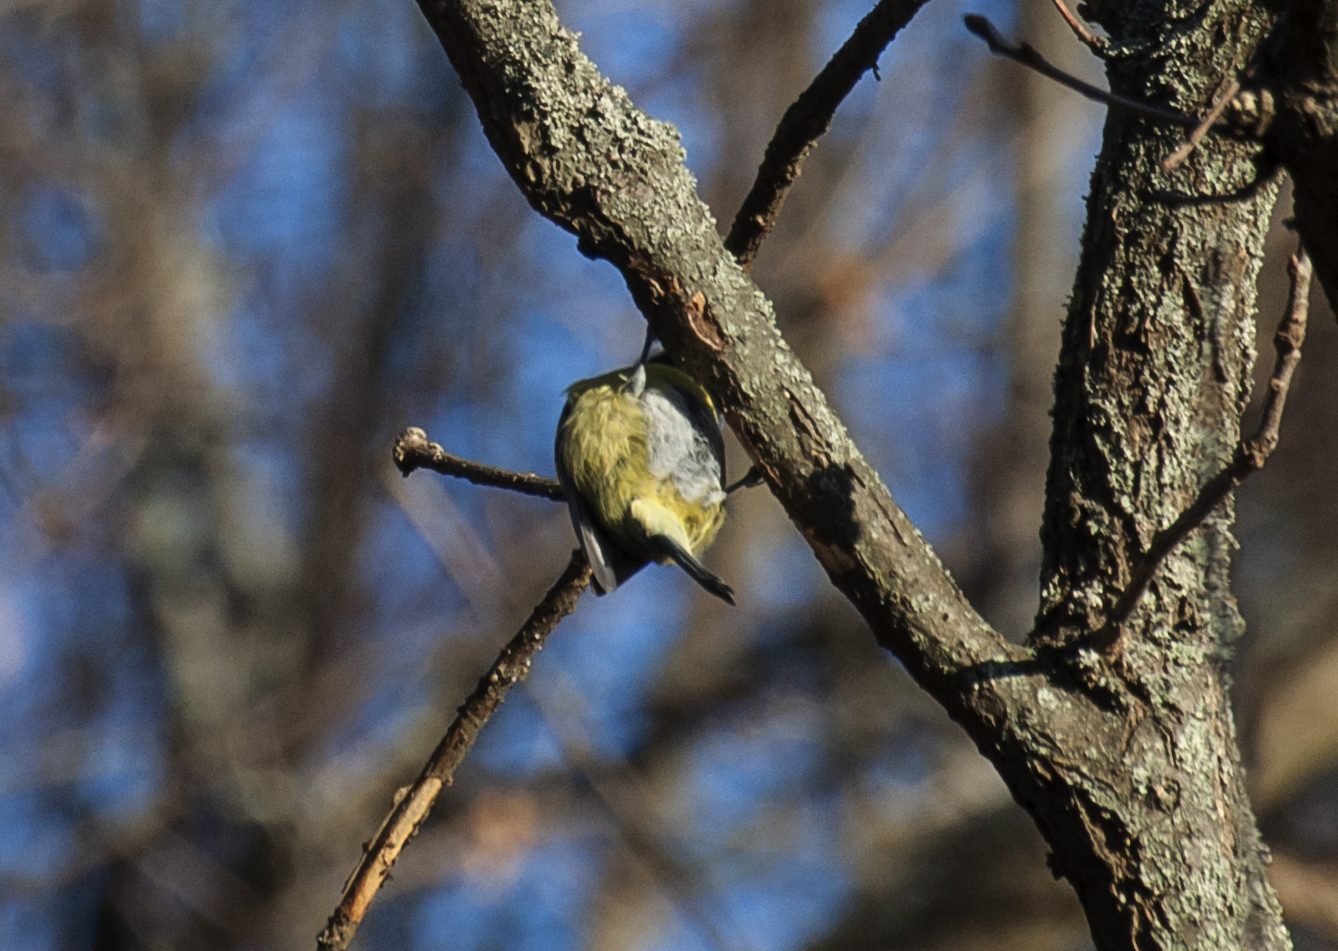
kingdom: Animalia
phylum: Chordata
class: Aves
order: Passeriformes
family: Paridae
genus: Cyanistes
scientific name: Cyanistes caeruleus
